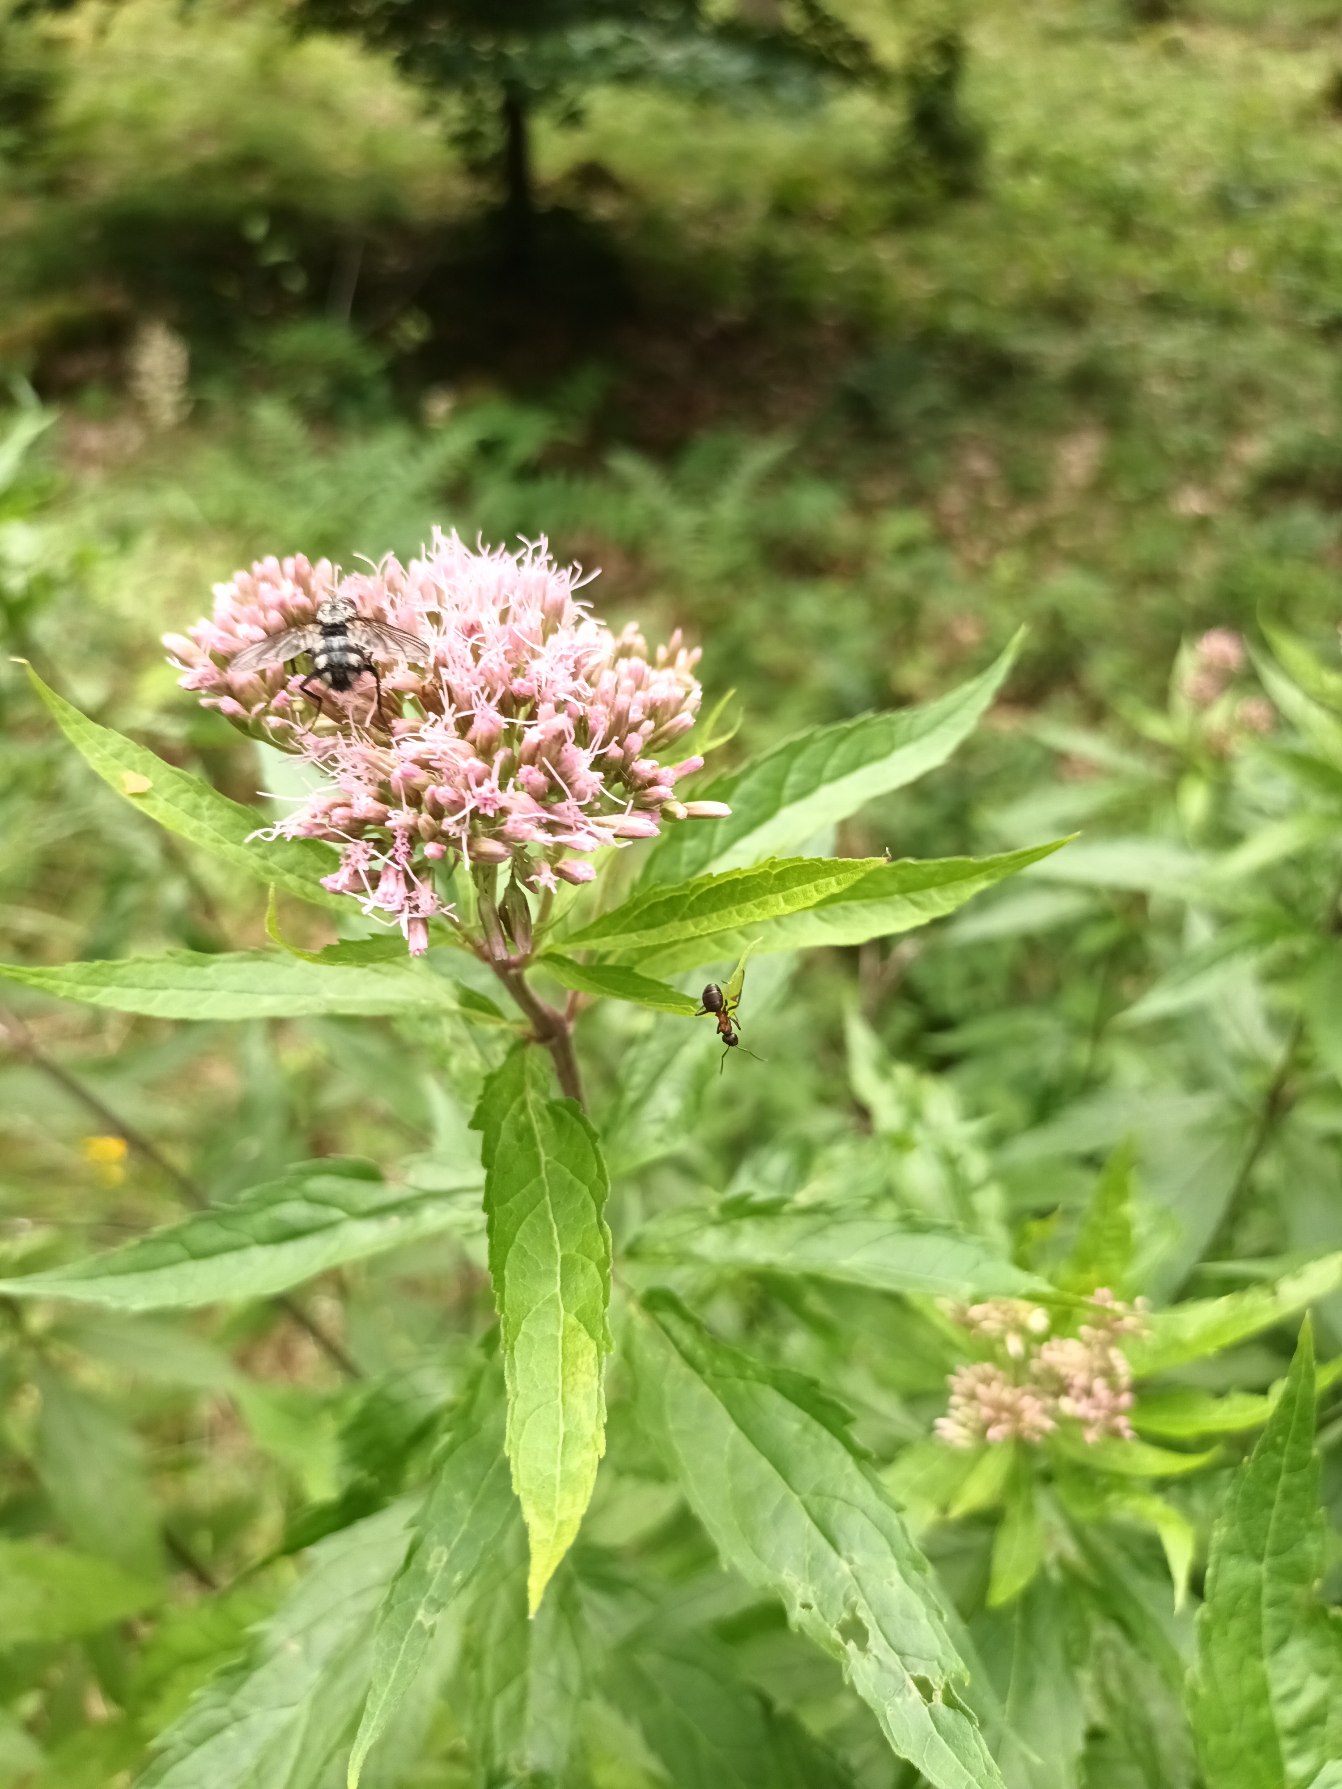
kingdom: Plantae
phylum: Tracheophyta
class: Magnoliopsida
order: Asterales
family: Asteraceae
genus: Eupatorium
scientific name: Eupatorium cannabinum
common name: Hjortetrøst
